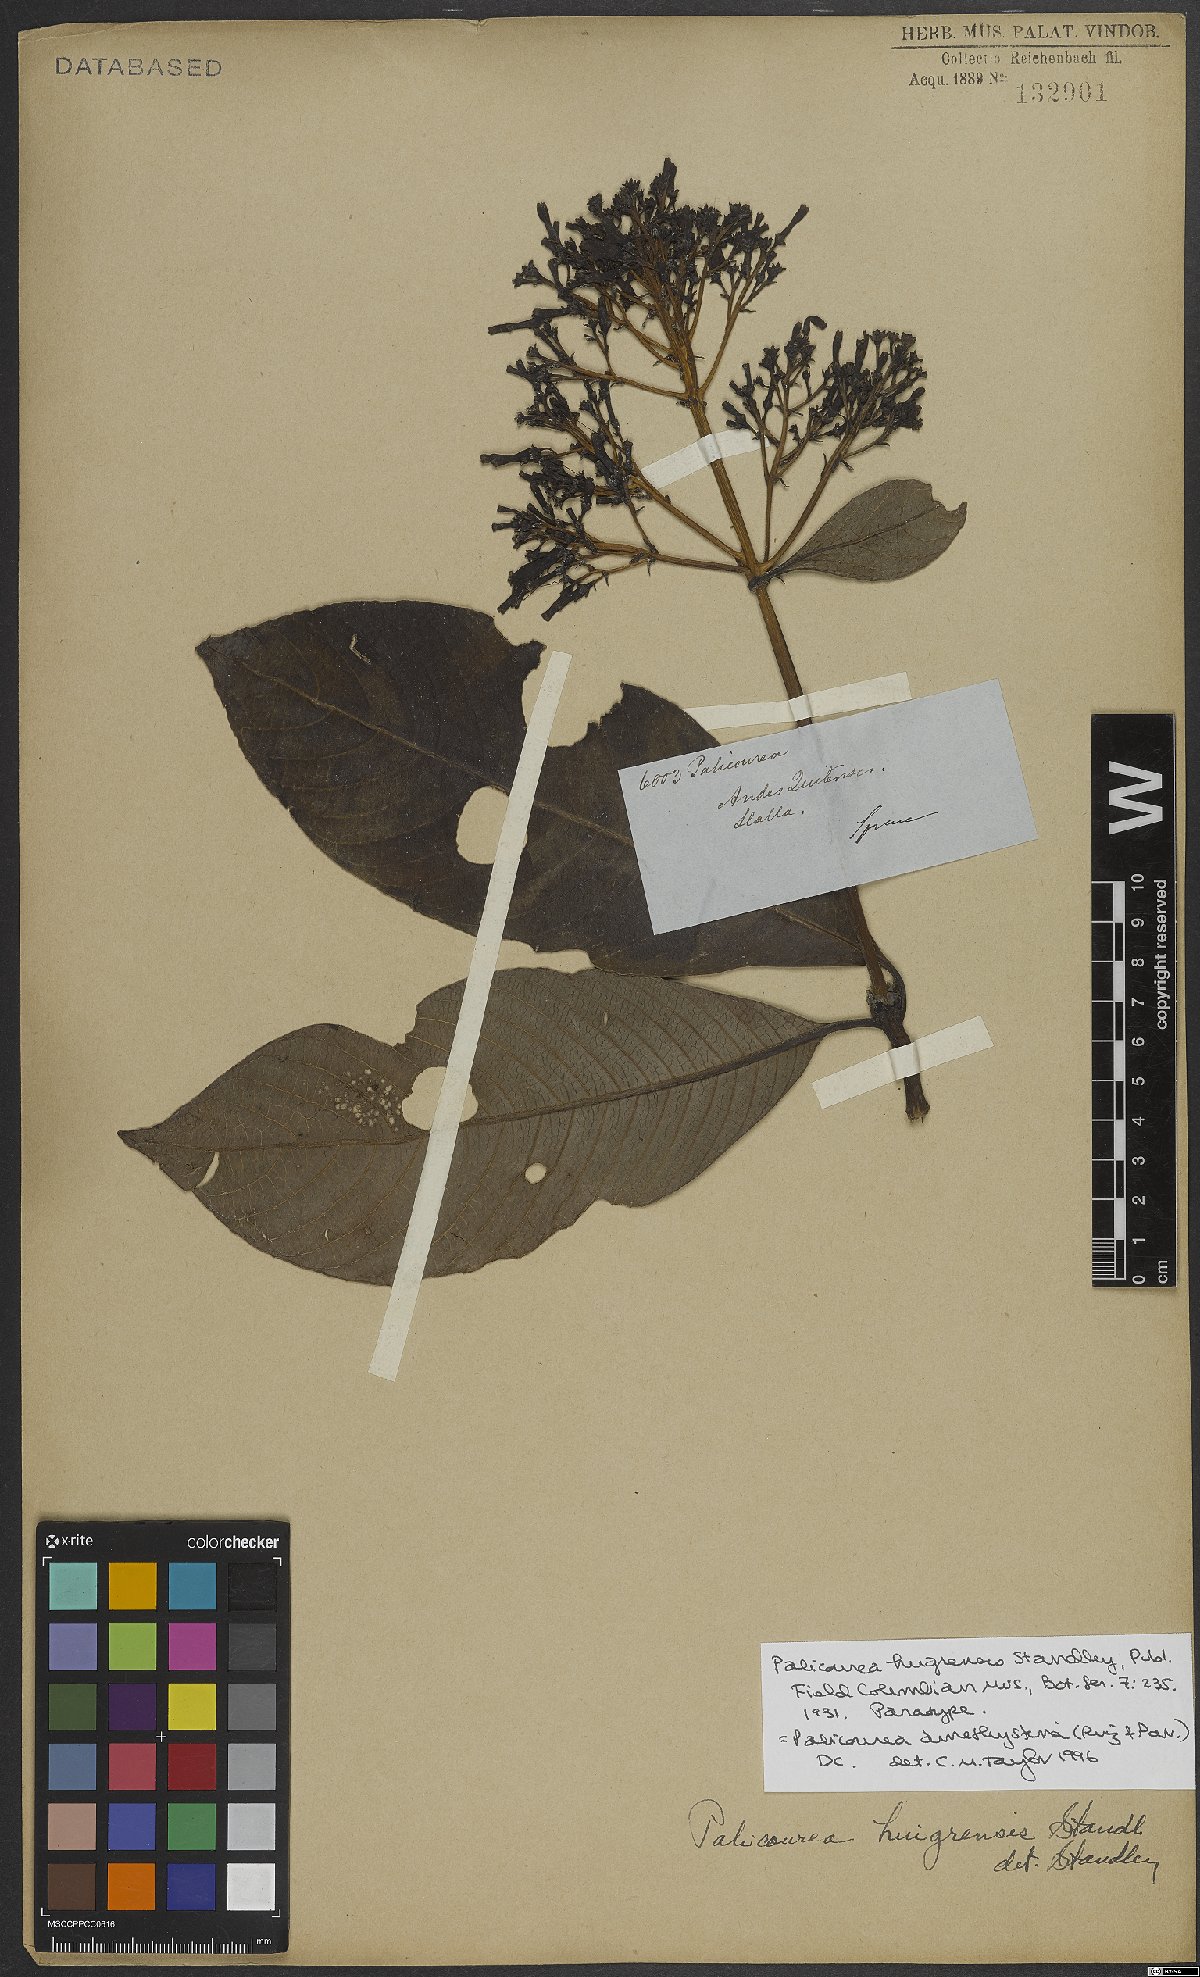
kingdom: Plantae
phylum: Tracheophyta
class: Magnoliopsida
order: Gentianales
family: Rubiaceae
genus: Palicourea
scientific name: Palicourea amethystina
